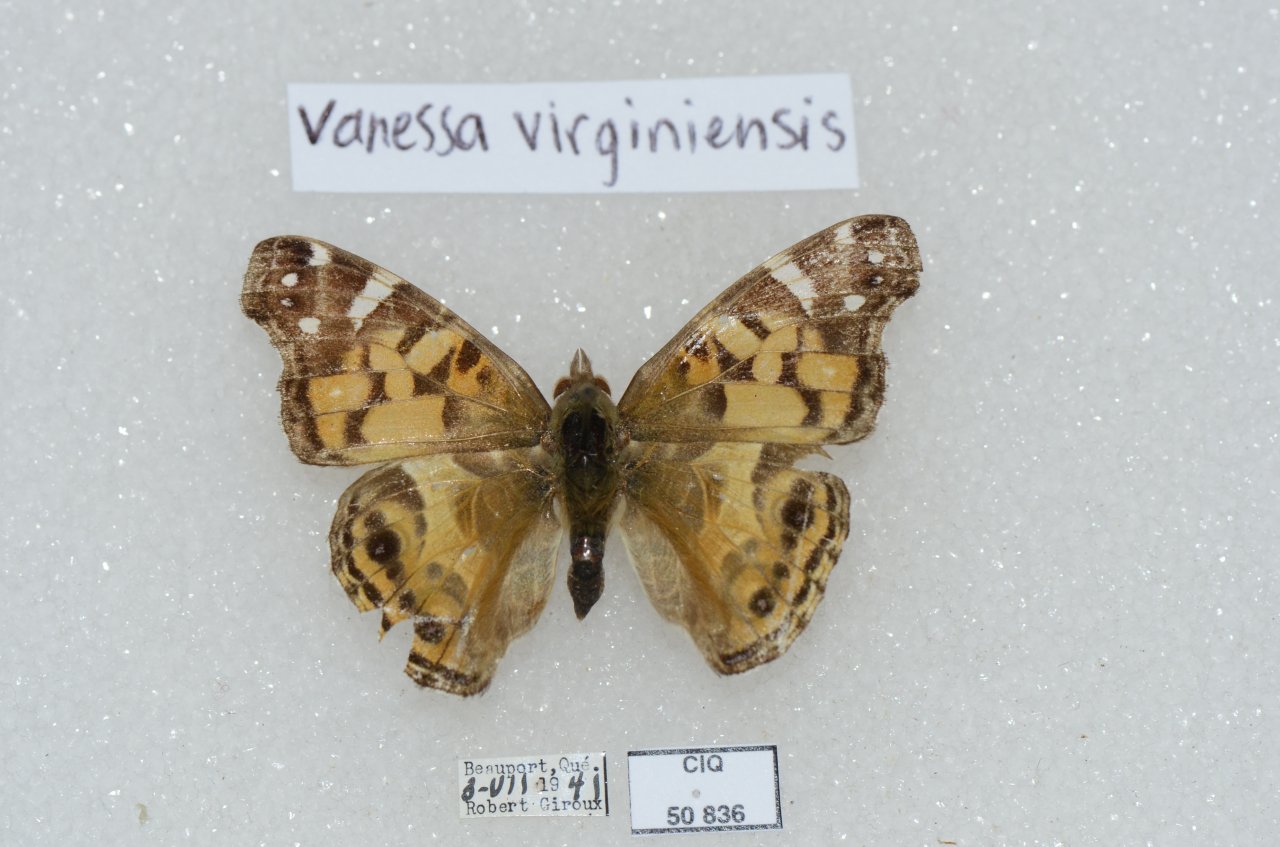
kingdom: Animalia
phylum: Arthropoda
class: Insecta
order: Lepidoptera
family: Nymphalidae
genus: Vanessa
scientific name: Vanessa virginiensis
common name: American Lady
